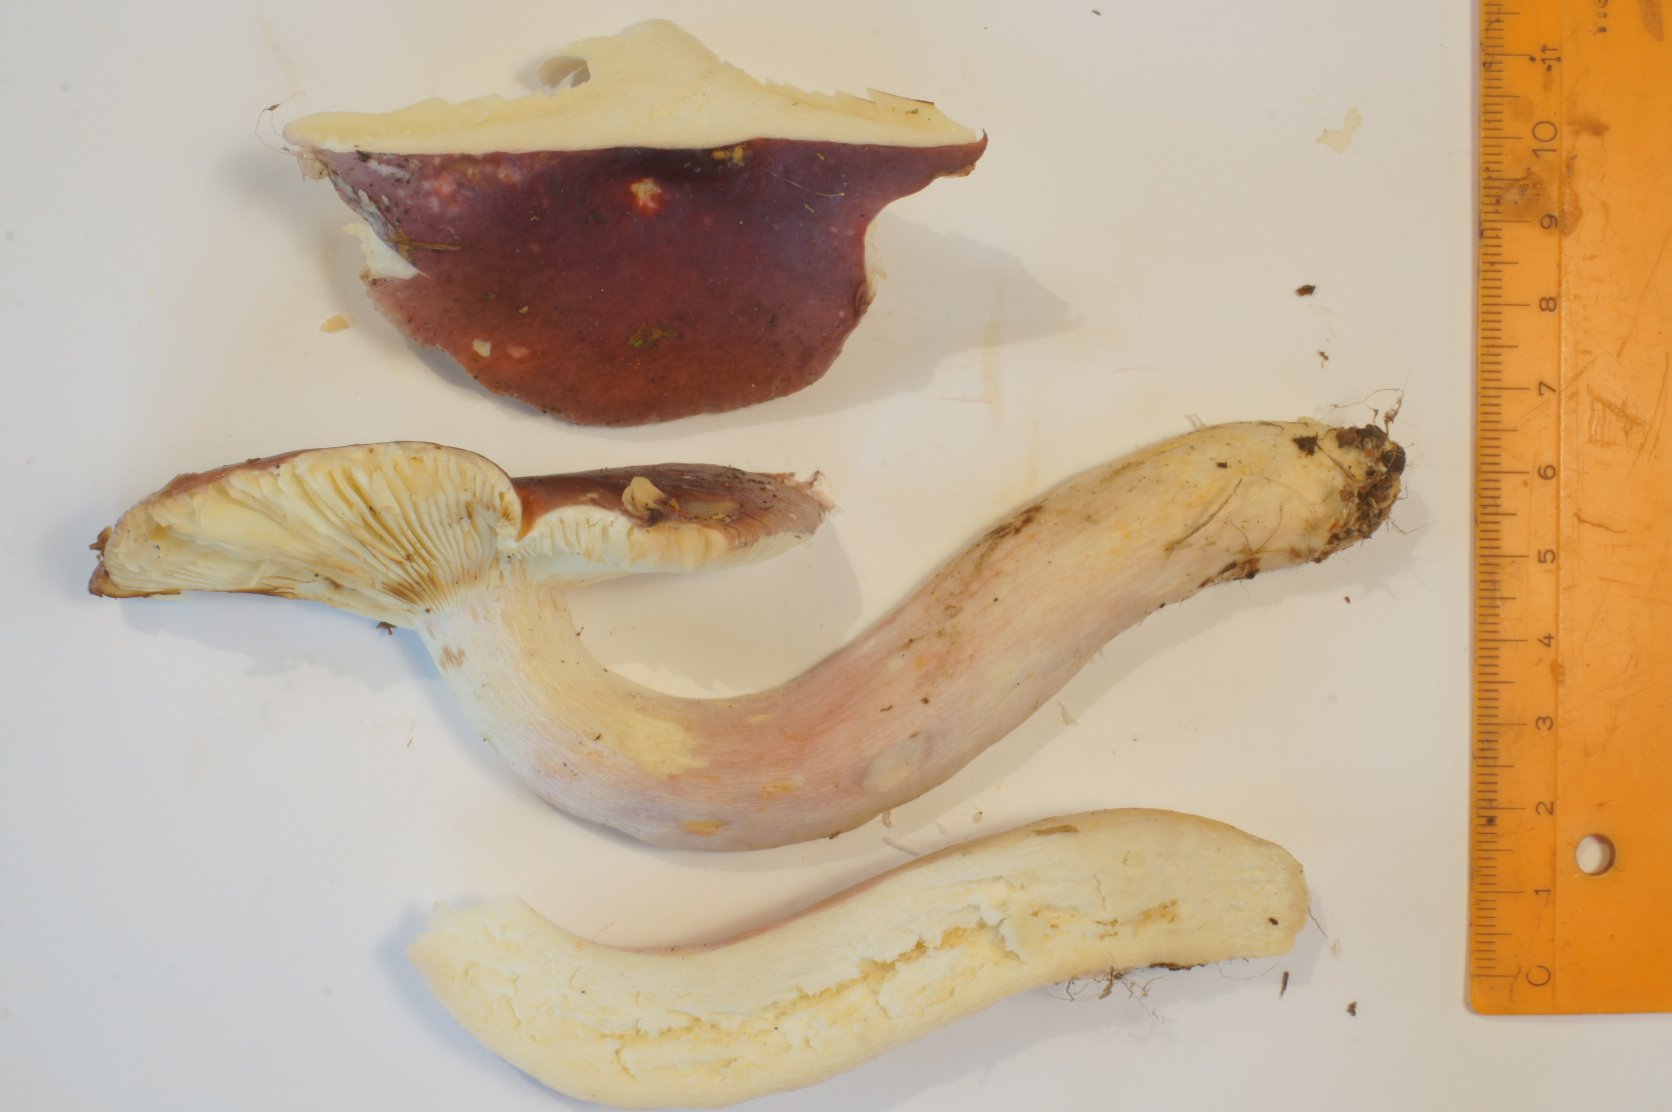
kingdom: Fungi
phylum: Basidiomycota
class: Agaricomycetes
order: Russulales
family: Russulaceae
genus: Russula
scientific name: Russula sardonia
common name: citronbladet skørhat
